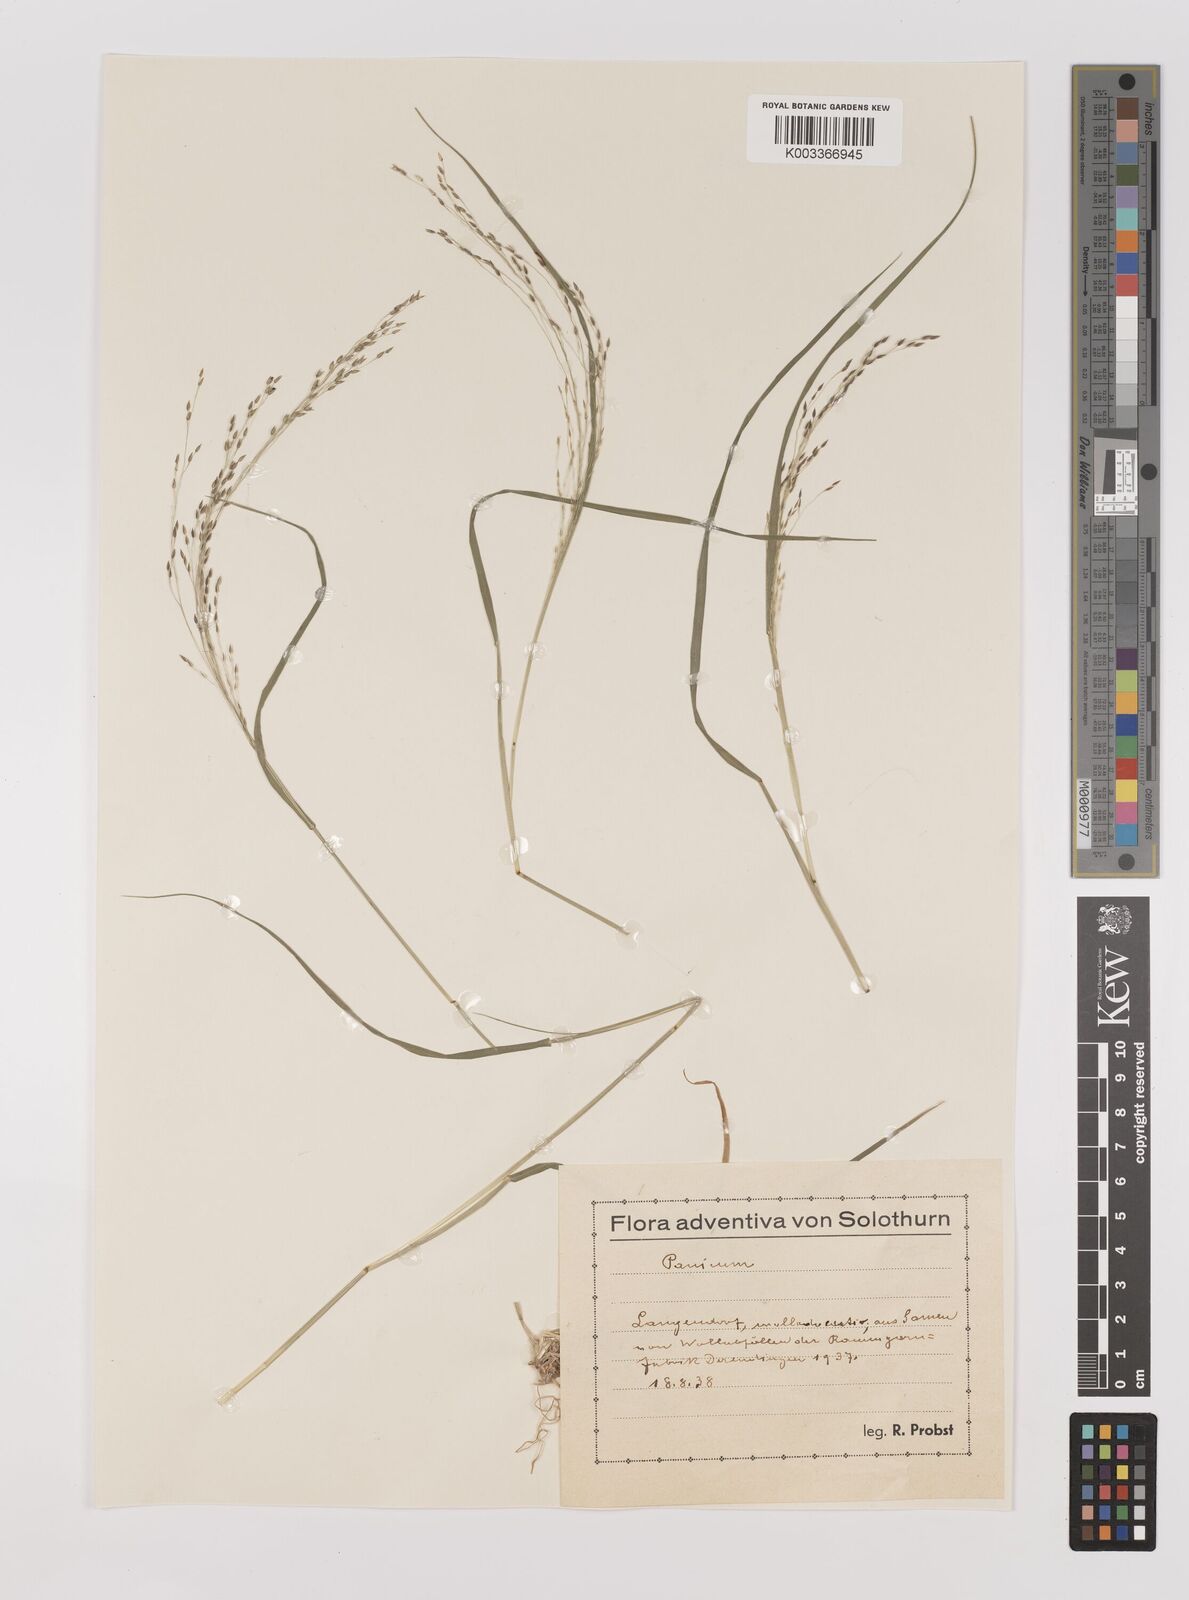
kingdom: Plantae
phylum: Tracheophyta
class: Liliopsida
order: Poales
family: Poaceae
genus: Panicum
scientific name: Panicum decompositum
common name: Australian millet
